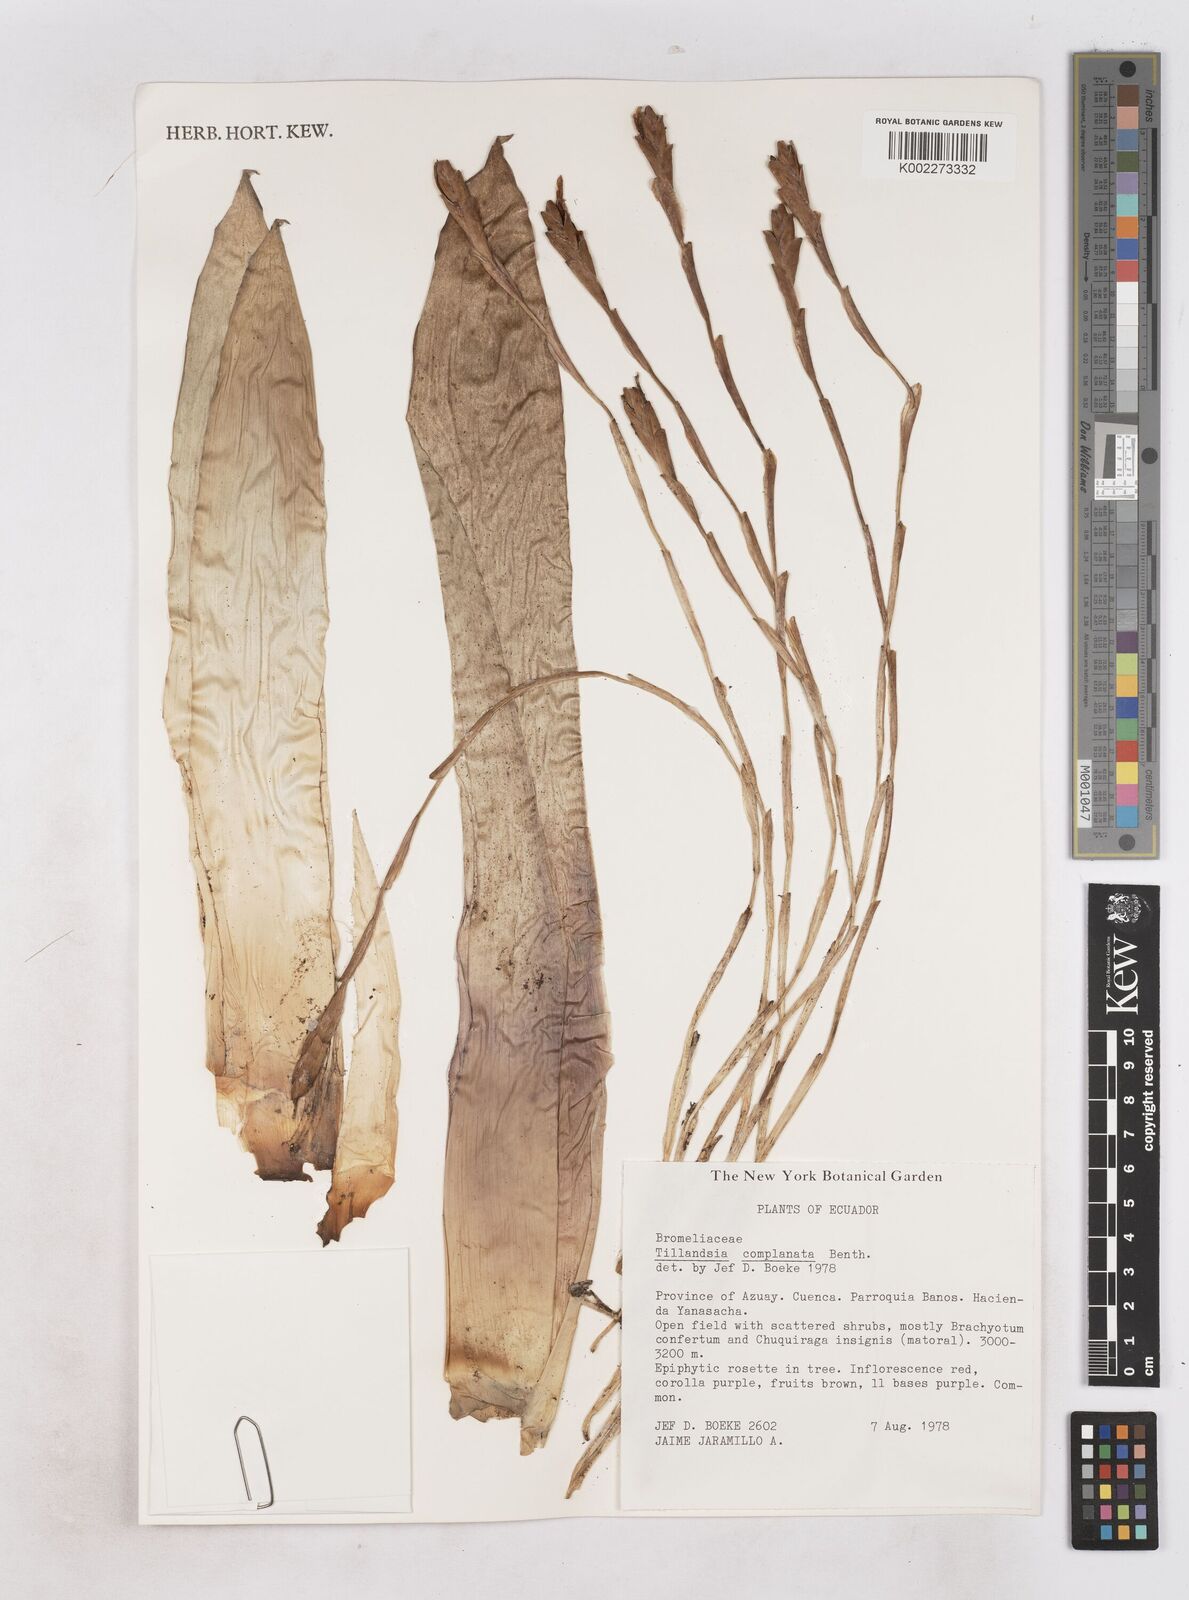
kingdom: Plantae
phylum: Tracheophyta
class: Liliopsida
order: Poales
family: Bromeliaceae
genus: Tillandsia
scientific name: Tillandsia complanata
